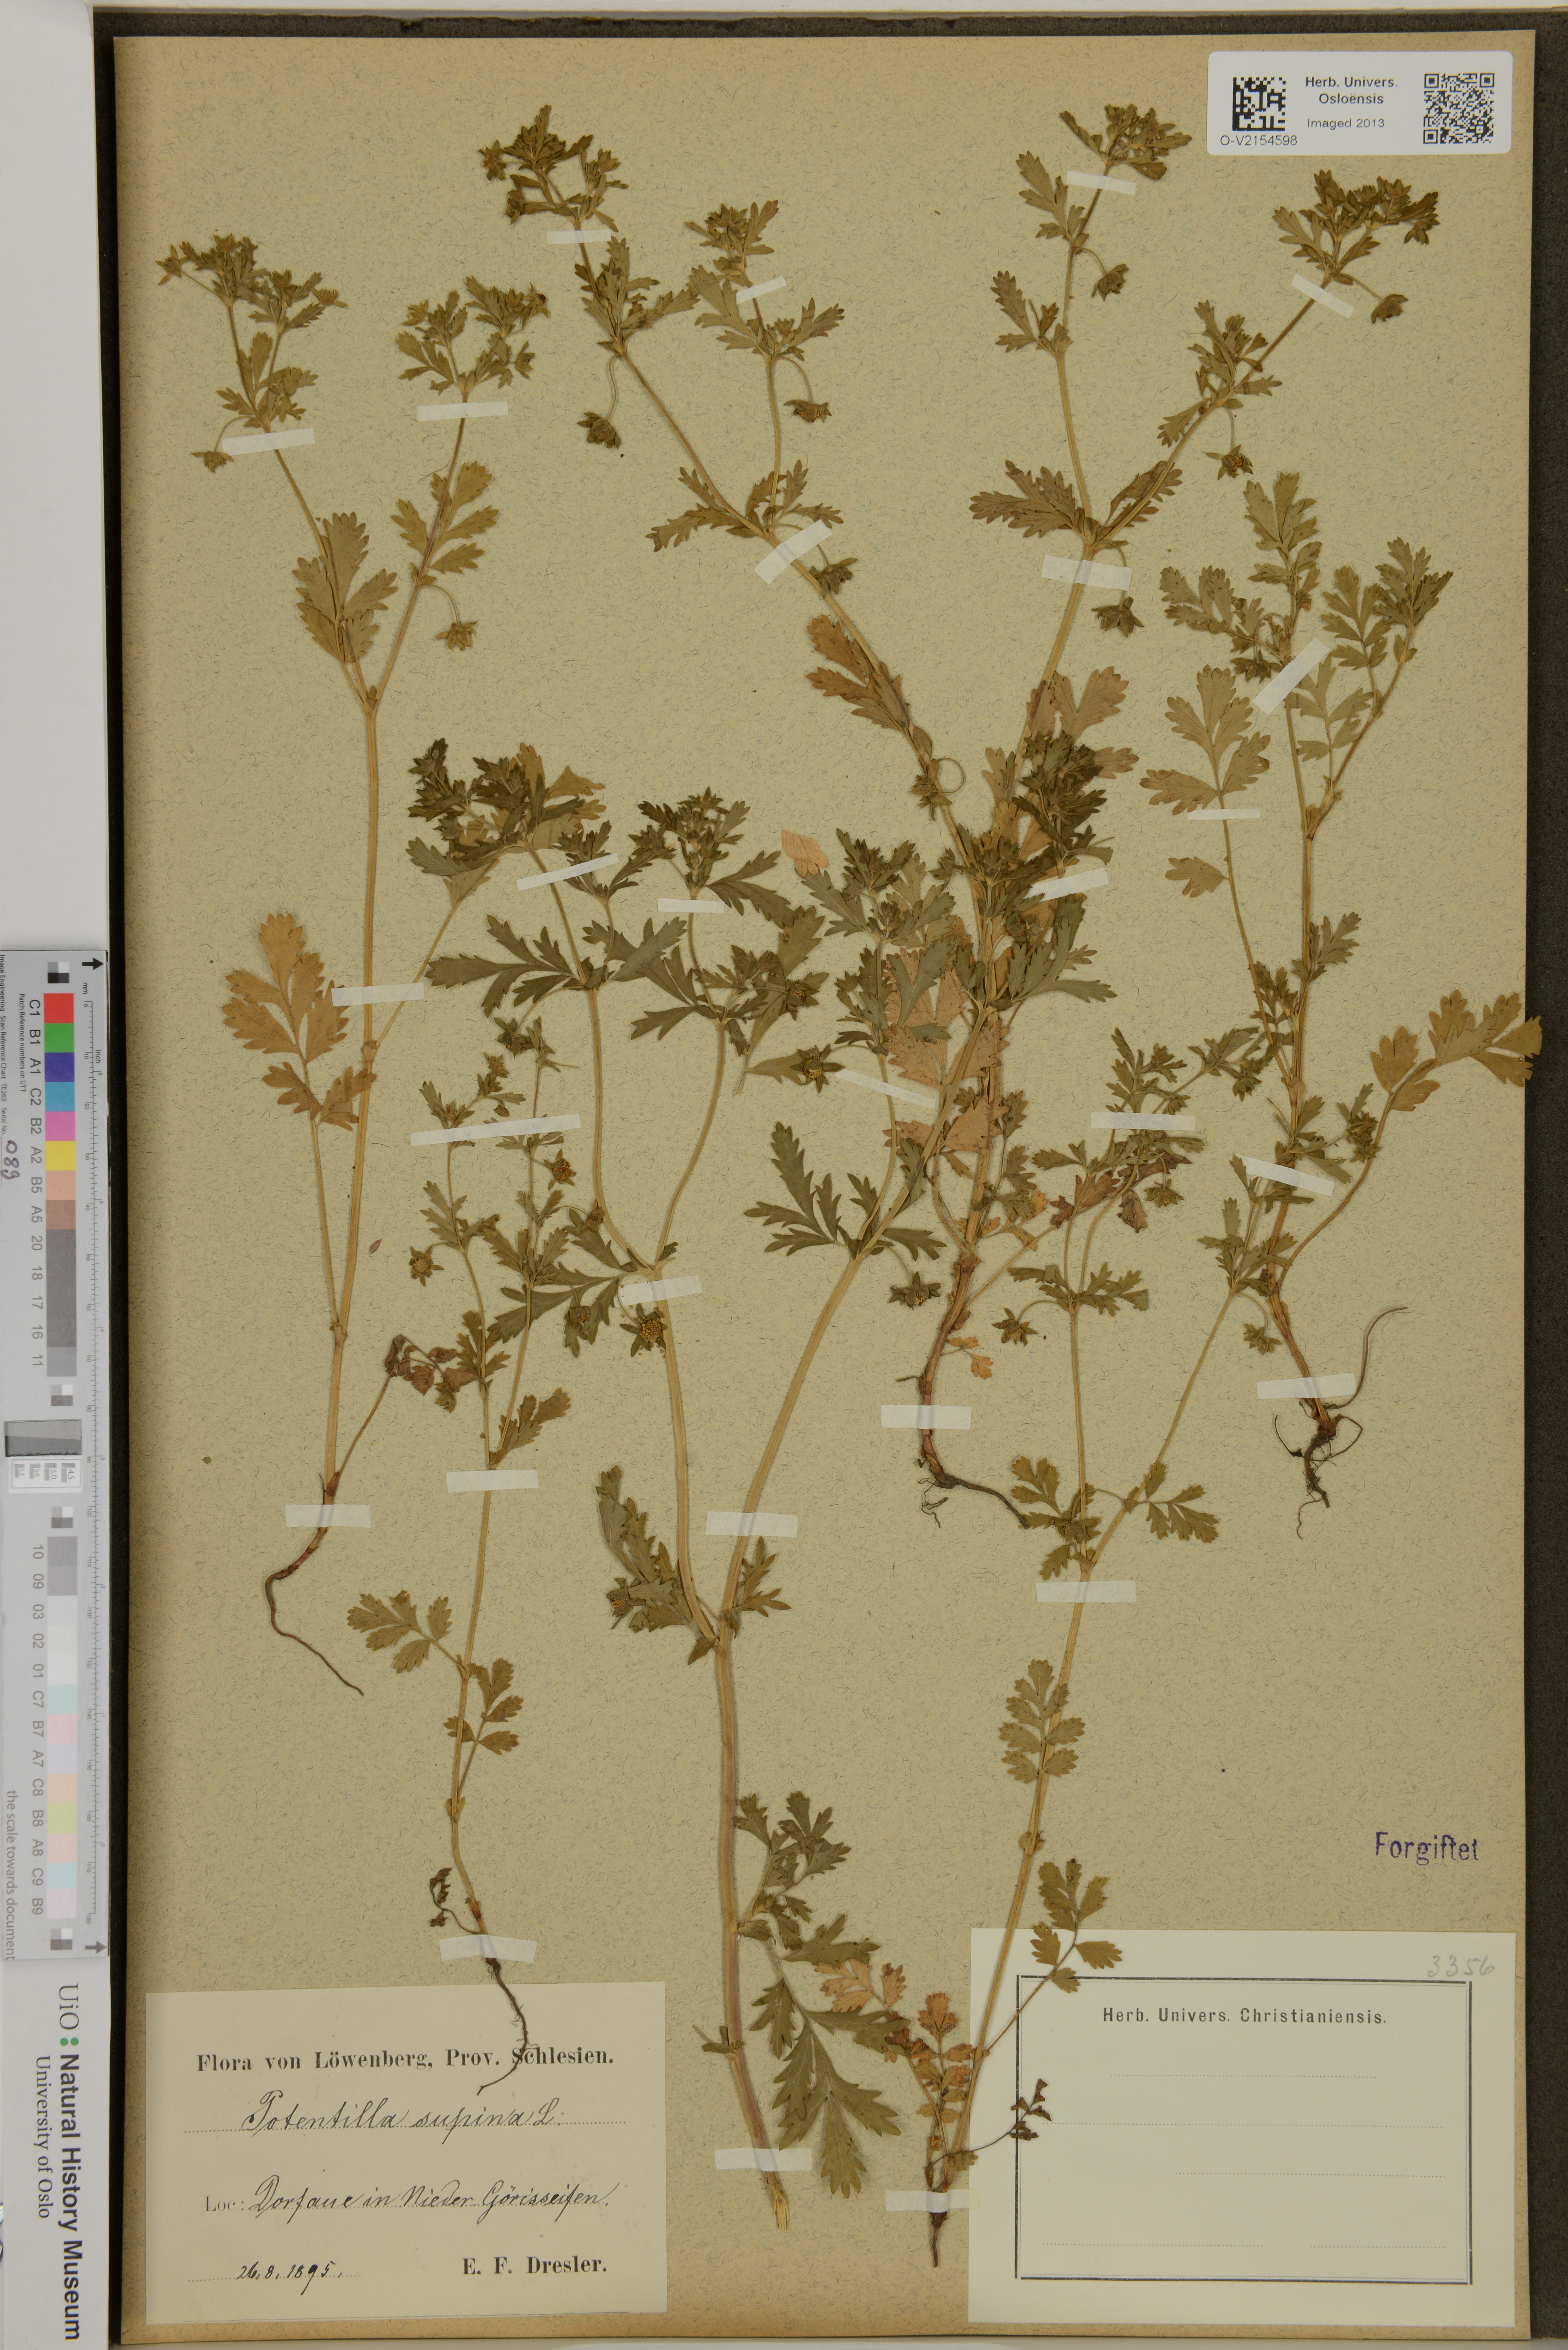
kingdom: Plantae
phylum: Tracheophyta
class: Magnoliopsida
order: Rosales
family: Rosaceae
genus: Potentilla
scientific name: Potentilla supina
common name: Prostrate cinquefoil
